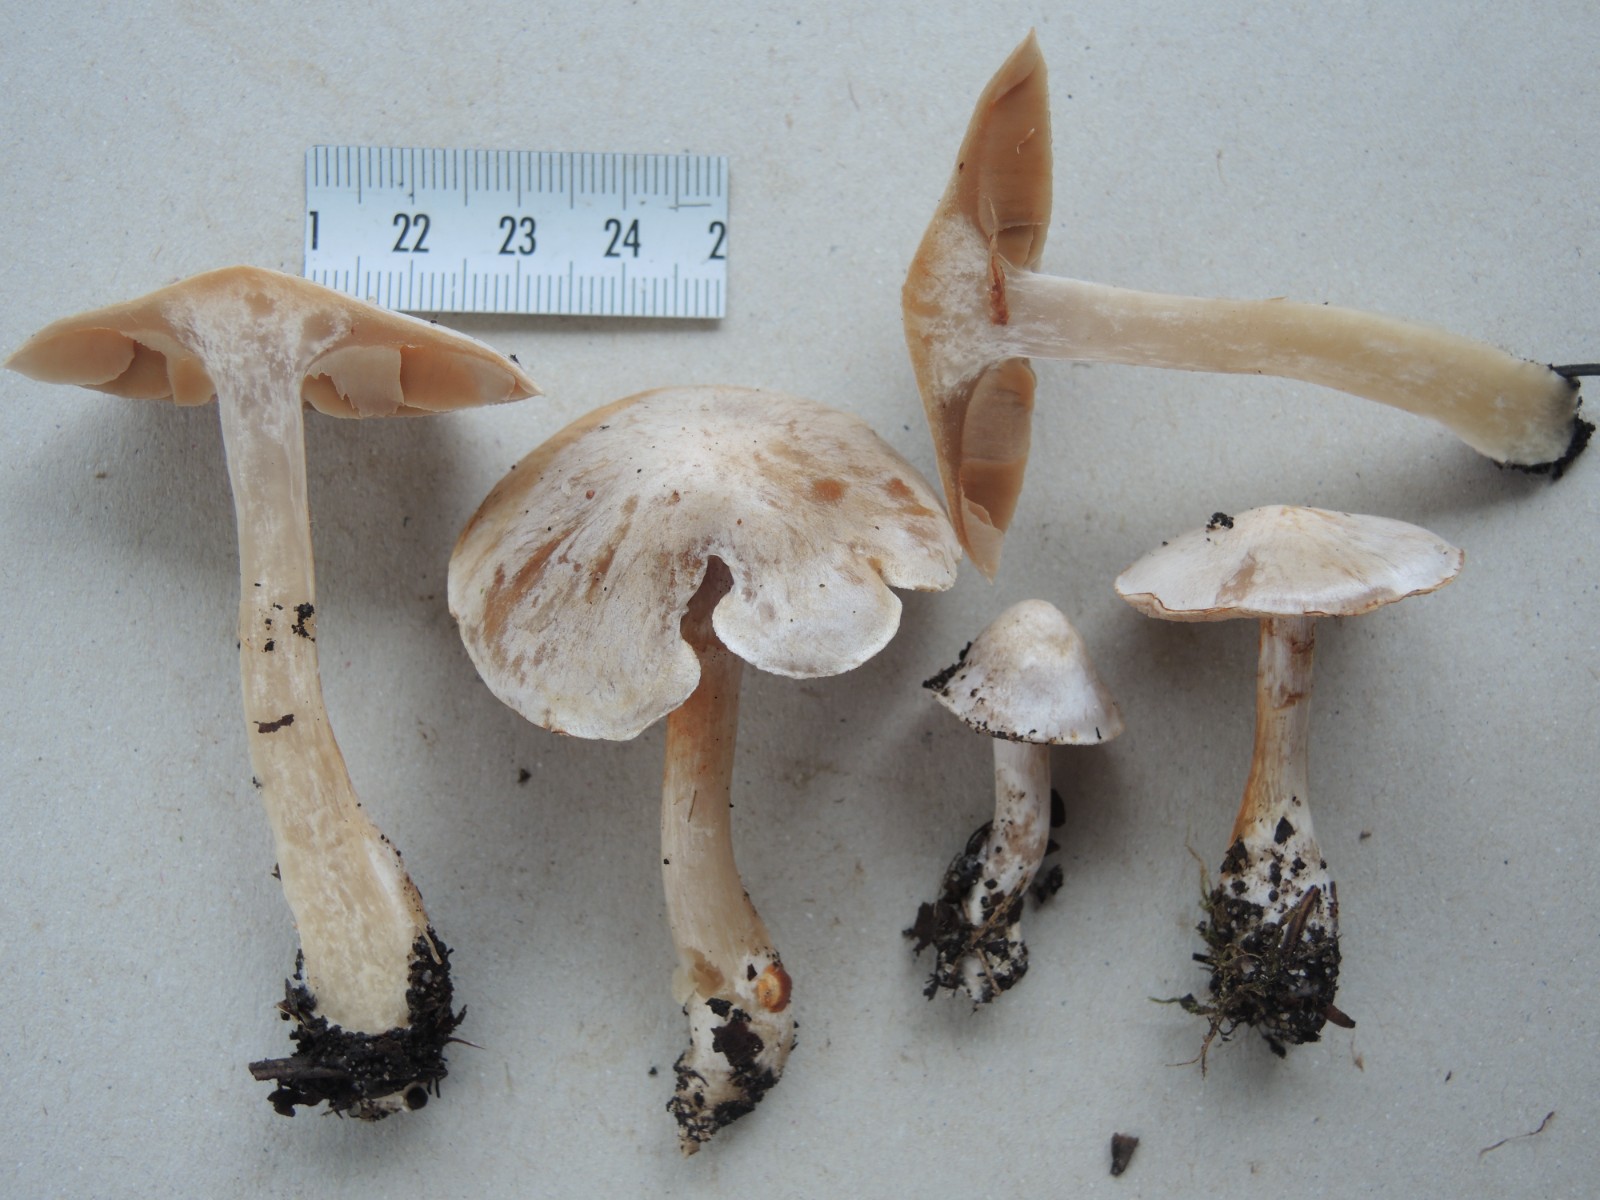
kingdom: Fungi
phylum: Basidiomycota
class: Agaricomycetes
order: Agaricales
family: Cortinariaceae
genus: Cortinarius
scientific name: Cortinarius acutispissipes
